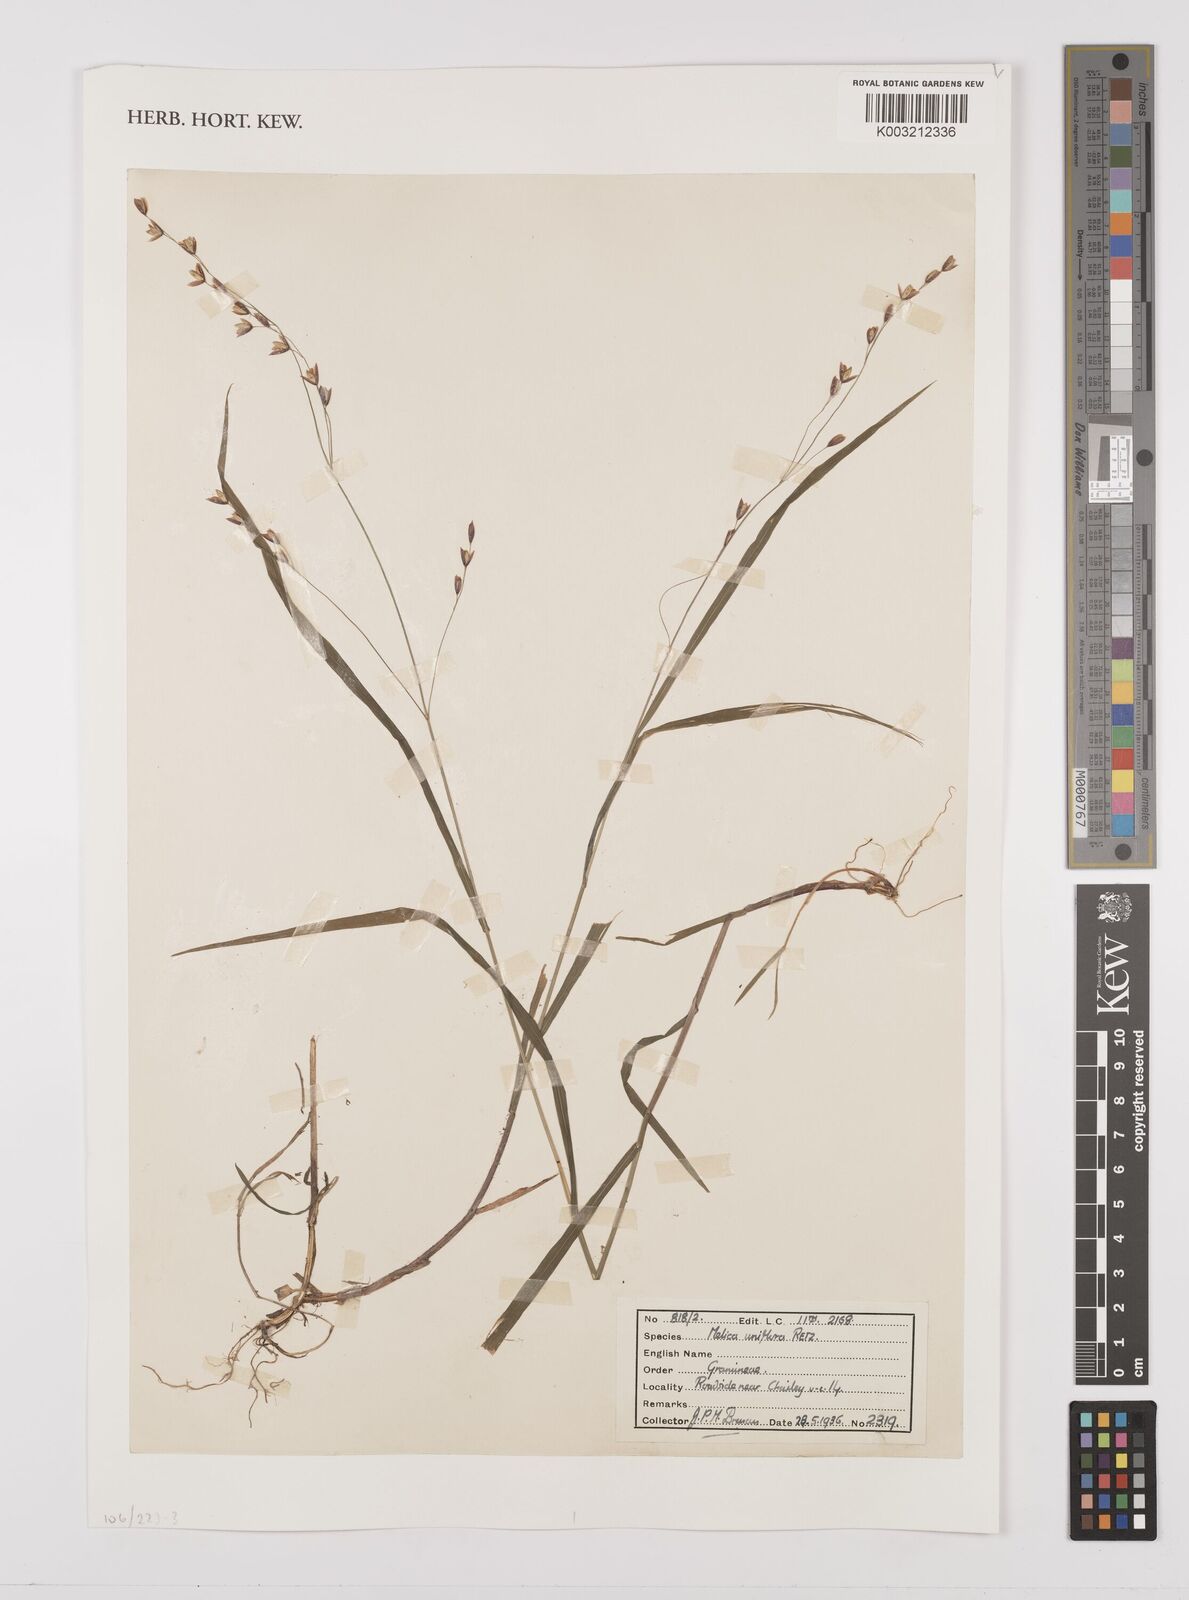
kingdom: Plantae
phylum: Tracheophyta
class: Liliopsida
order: Poales
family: Poaceae
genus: Melica
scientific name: Melica uniflora
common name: Wood melick
